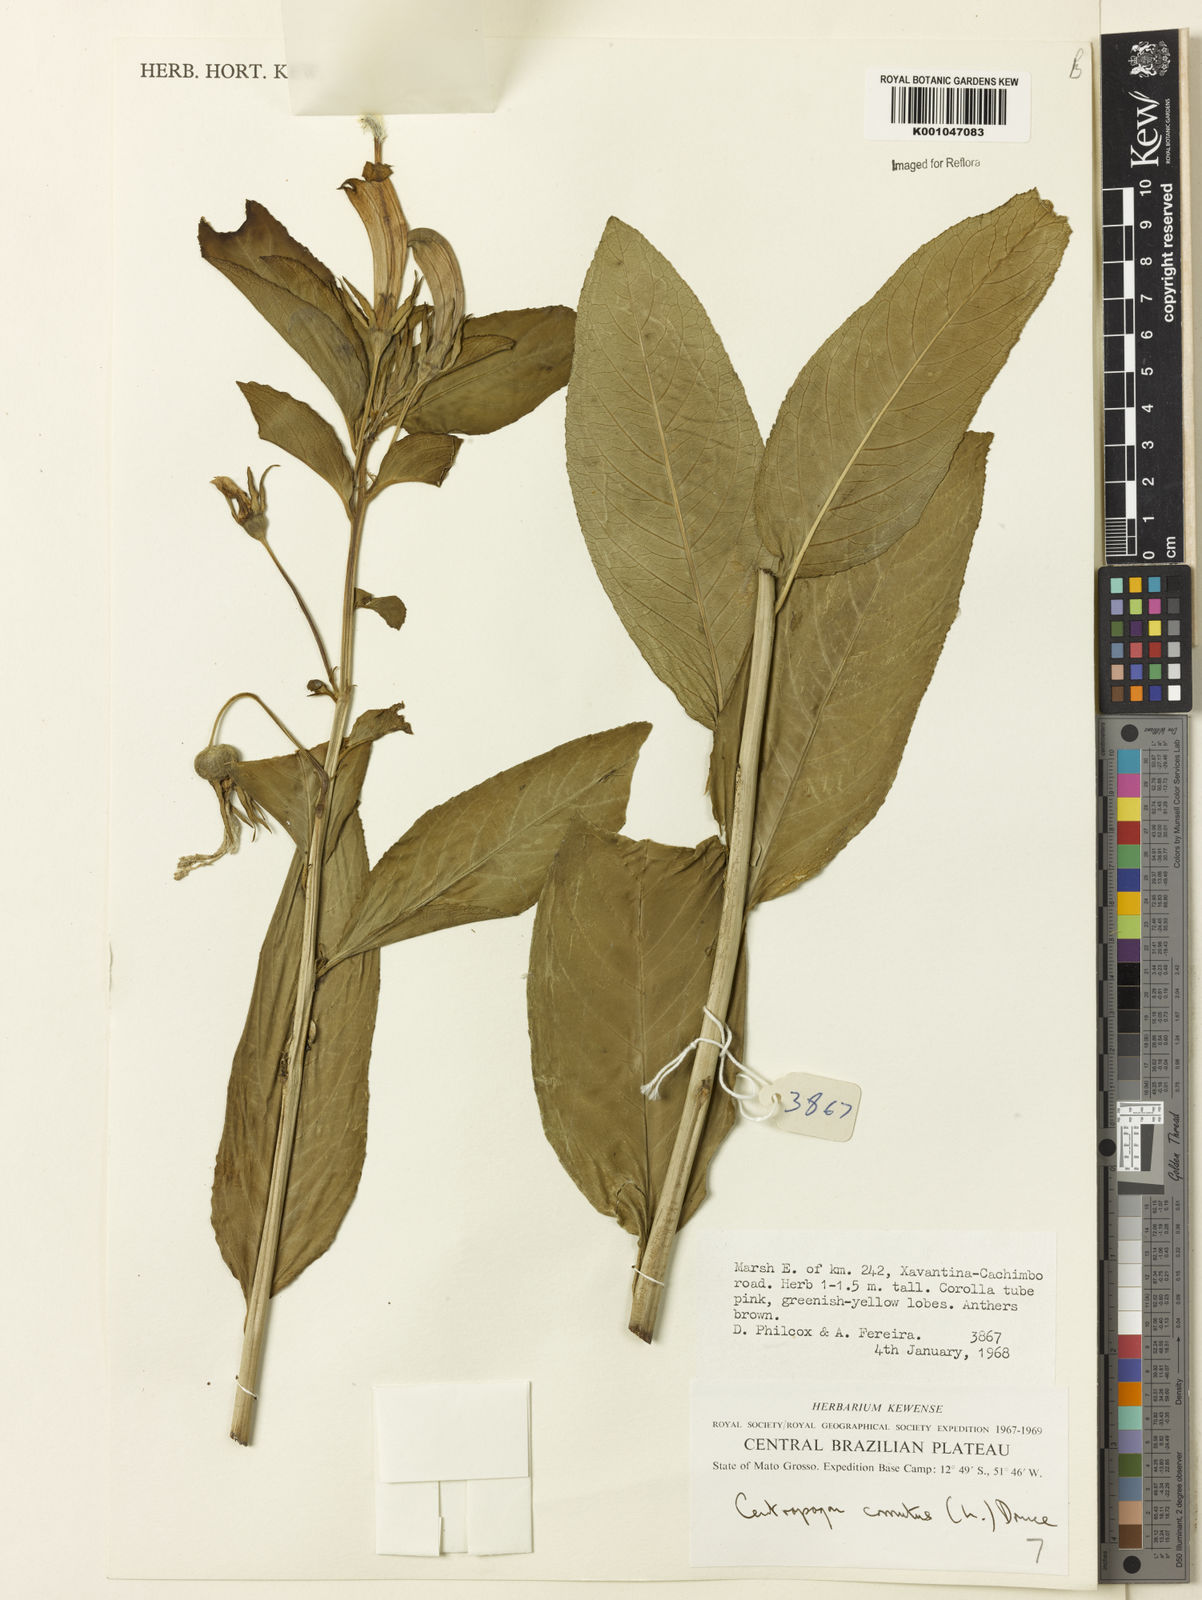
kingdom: Plantae
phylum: Tracheophyta
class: Magnoliopsida
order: Asterales
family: Campanulaceae
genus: Centropogon
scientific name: Centropogon cornutus
